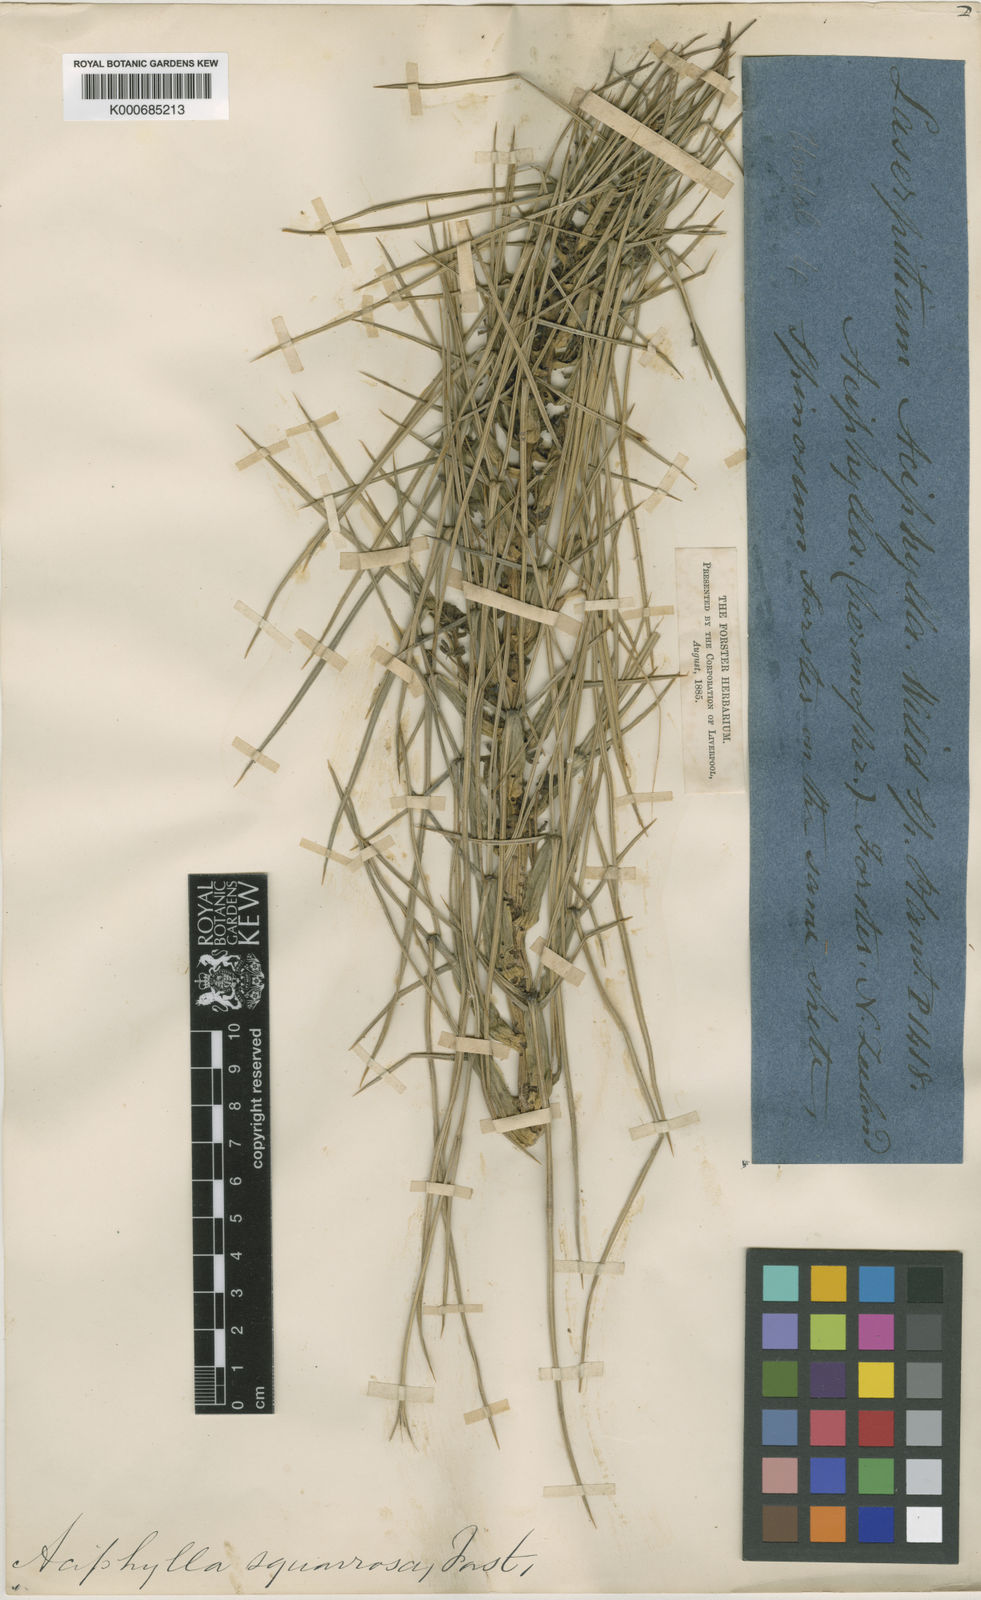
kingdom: Plantae
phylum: Tracheophyta
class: Magnoliopsida
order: Apiales
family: Apiaceae
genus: Aciphylla
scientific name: Aciphylla squarrosa
